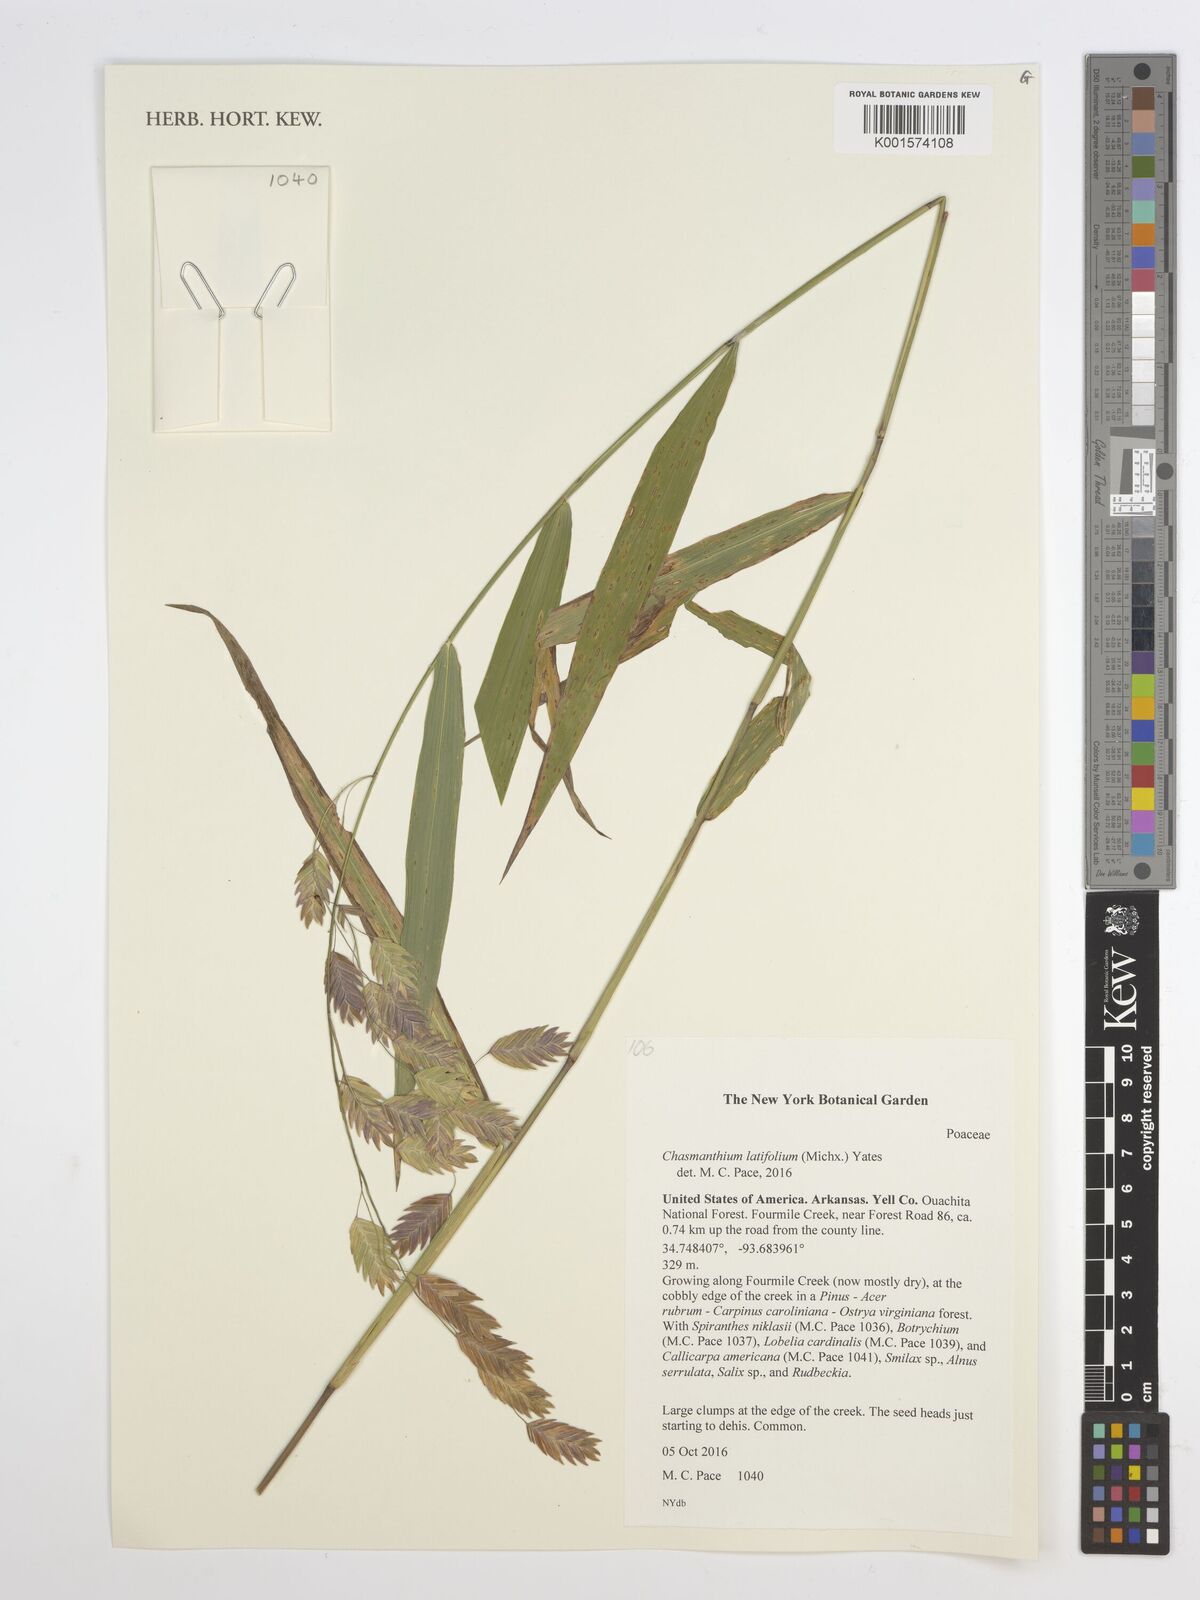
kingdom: Plantae
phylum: Tracheophyta
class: Liliopsida
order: Poales
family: Poaceae
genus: Chasmanthium
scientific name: Chasmanthium latifolium
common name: Broad-leaved chasmanthium
